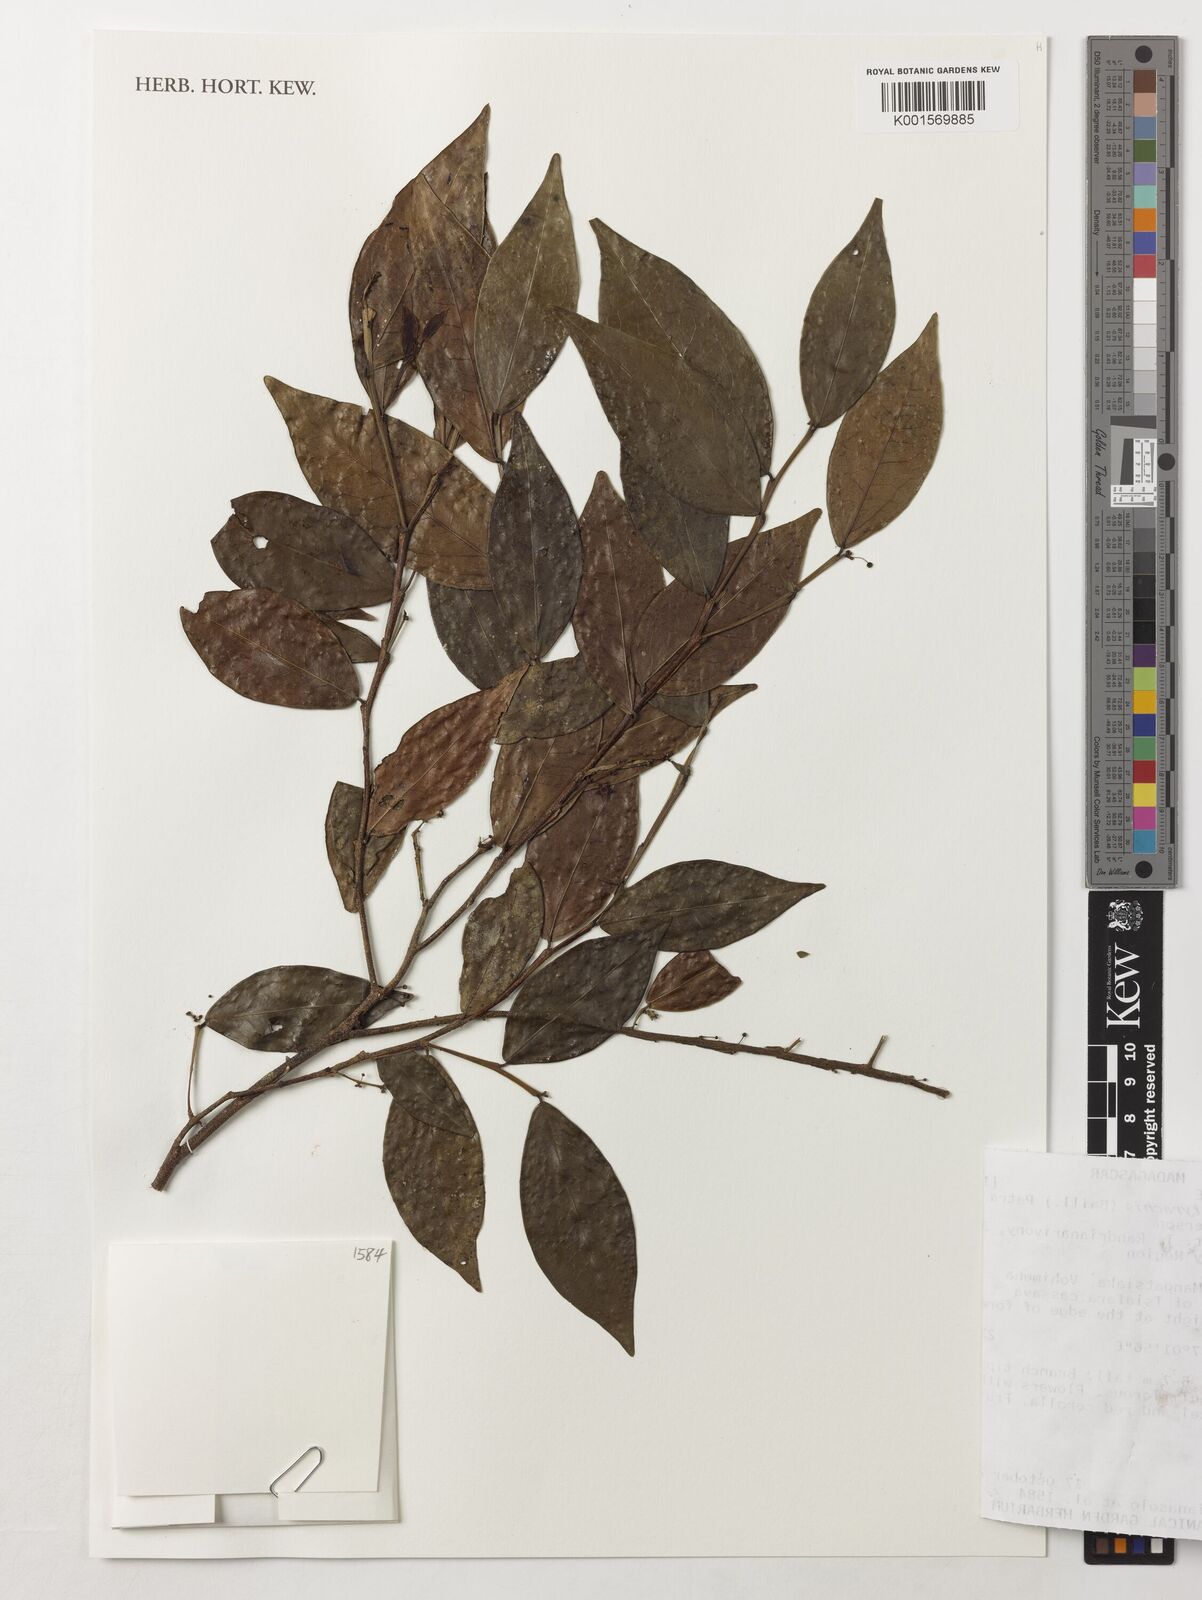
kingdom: Plantae
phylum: Tracheophyta
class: Magnoliopsida
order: Malpighiales
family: Phyllanthaceae
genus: Wielandia
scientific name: Wielandia platyrachis
